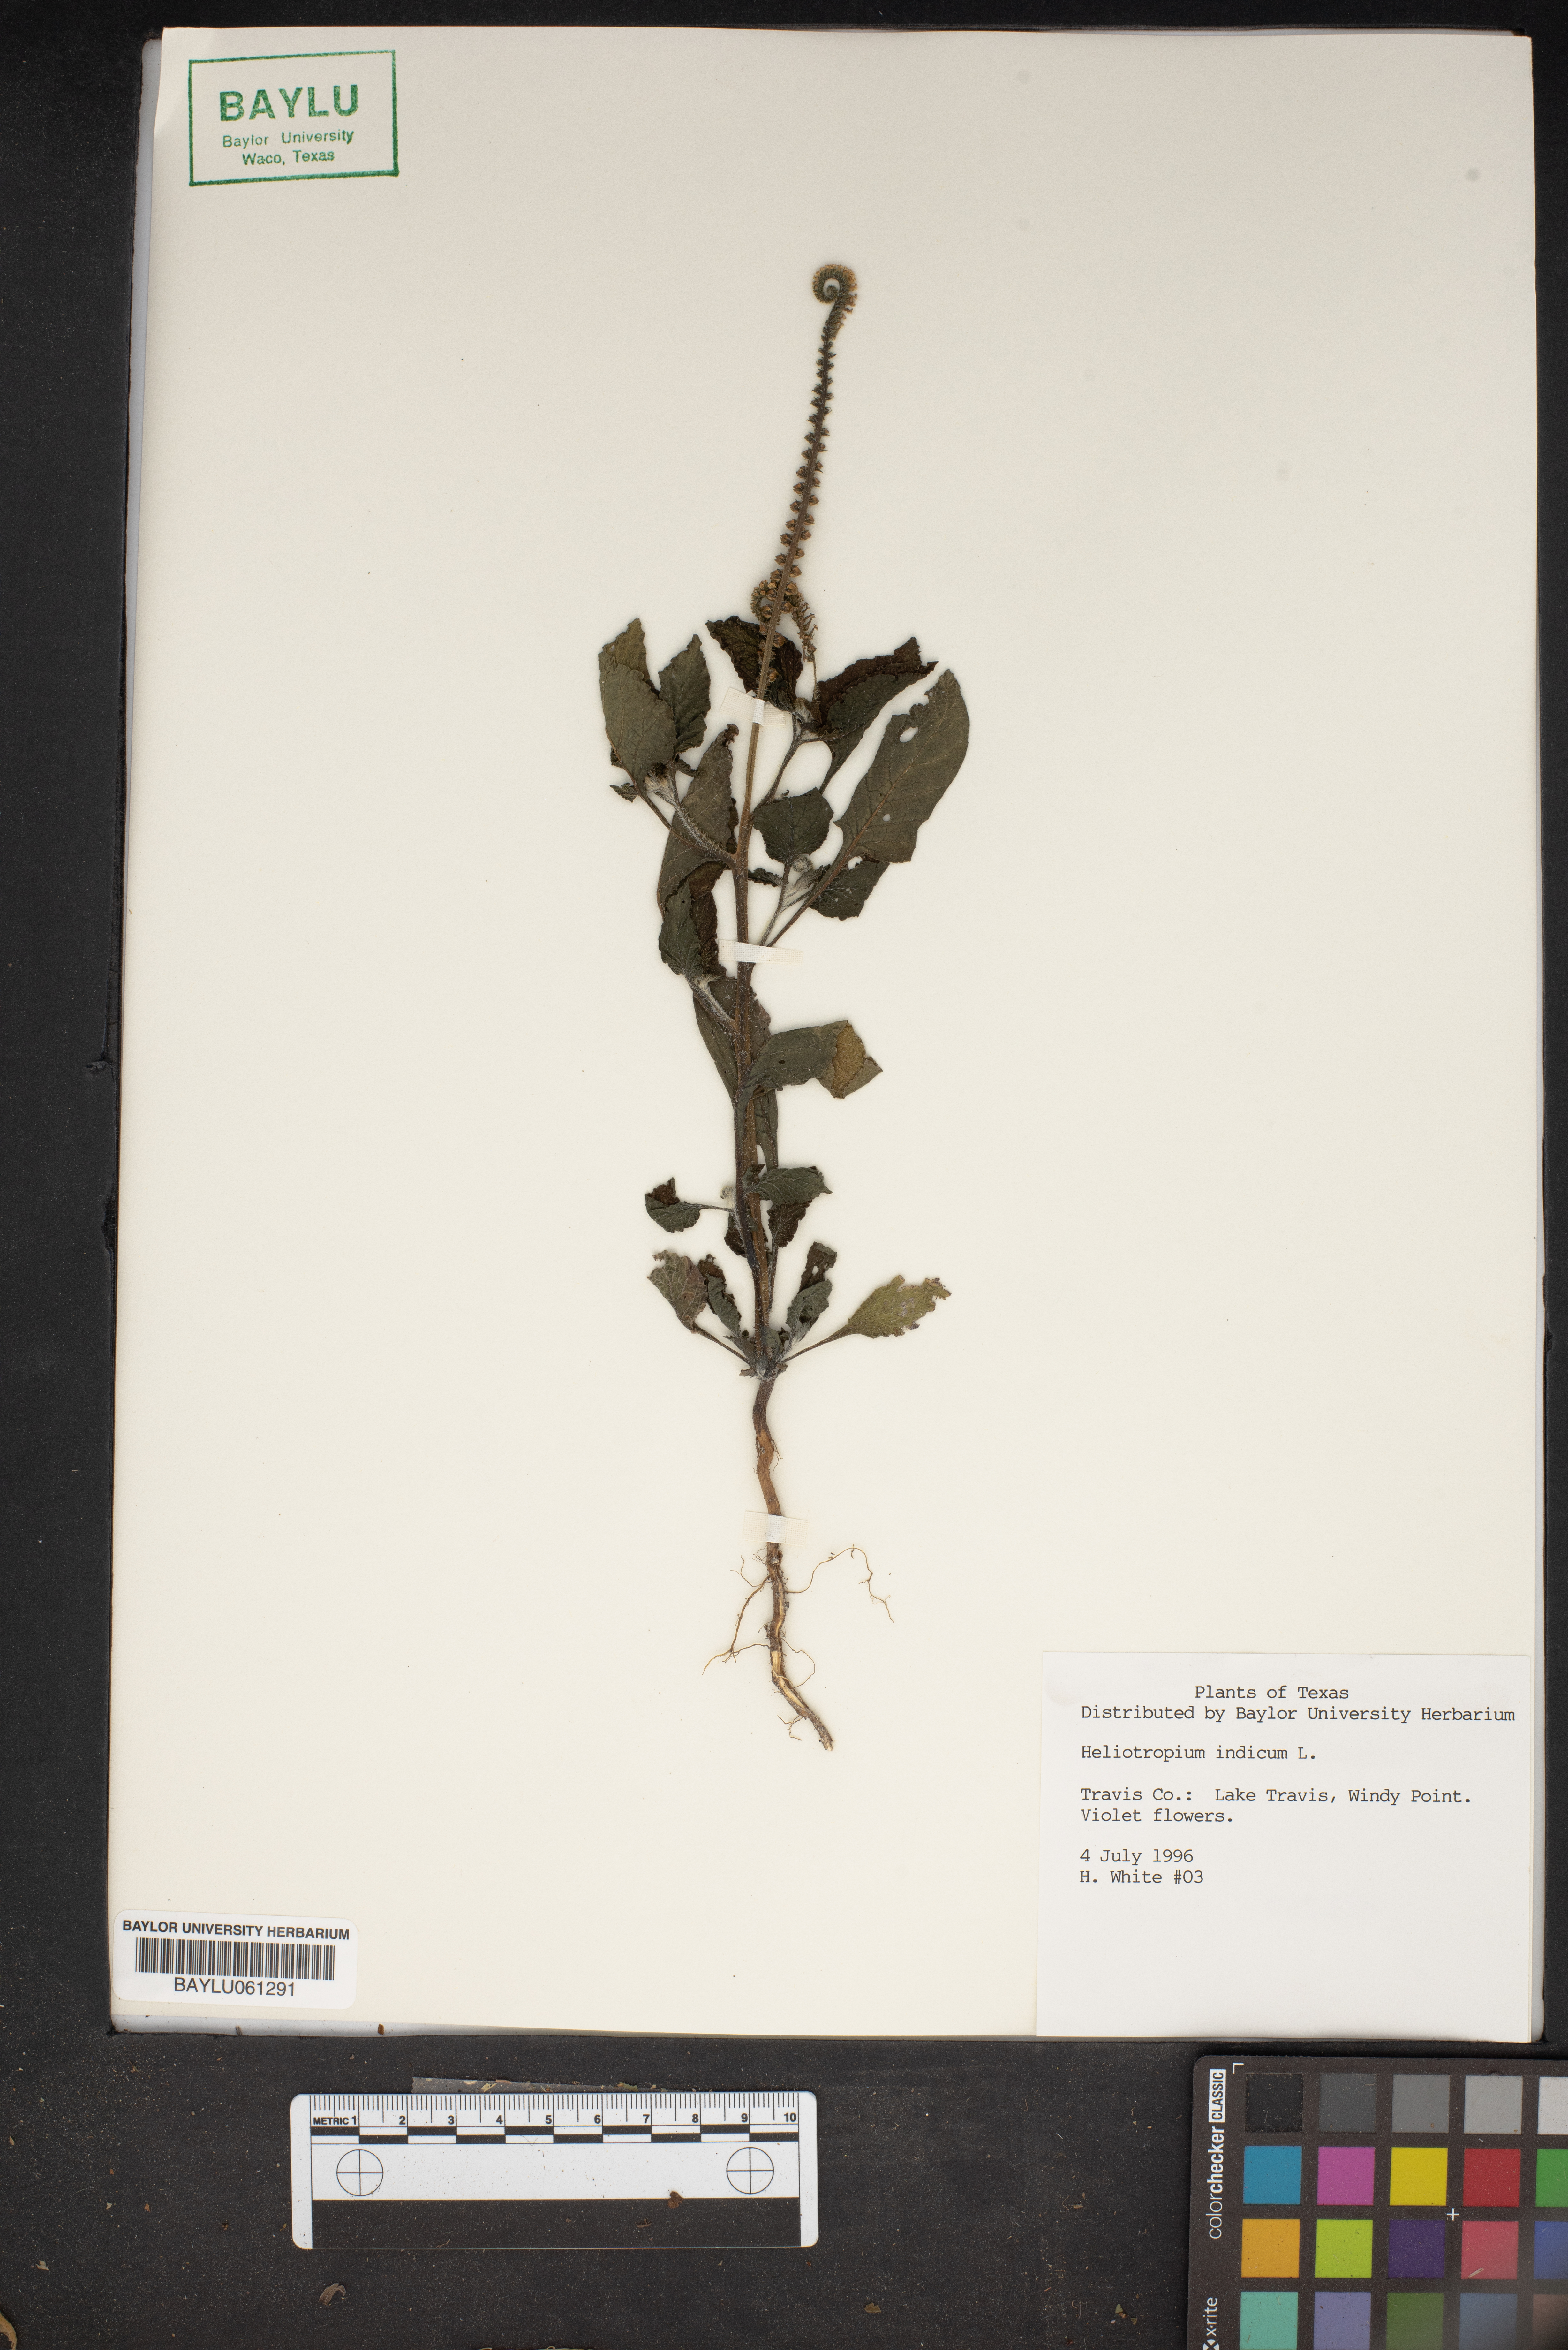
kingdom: Plantae
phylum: Tracheophyta
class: Magnoliopsida
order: Boraginales
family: Heliotropiaceae
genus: Heliotropium
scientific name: Heliotropium indicum
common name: Indian heliotrope
